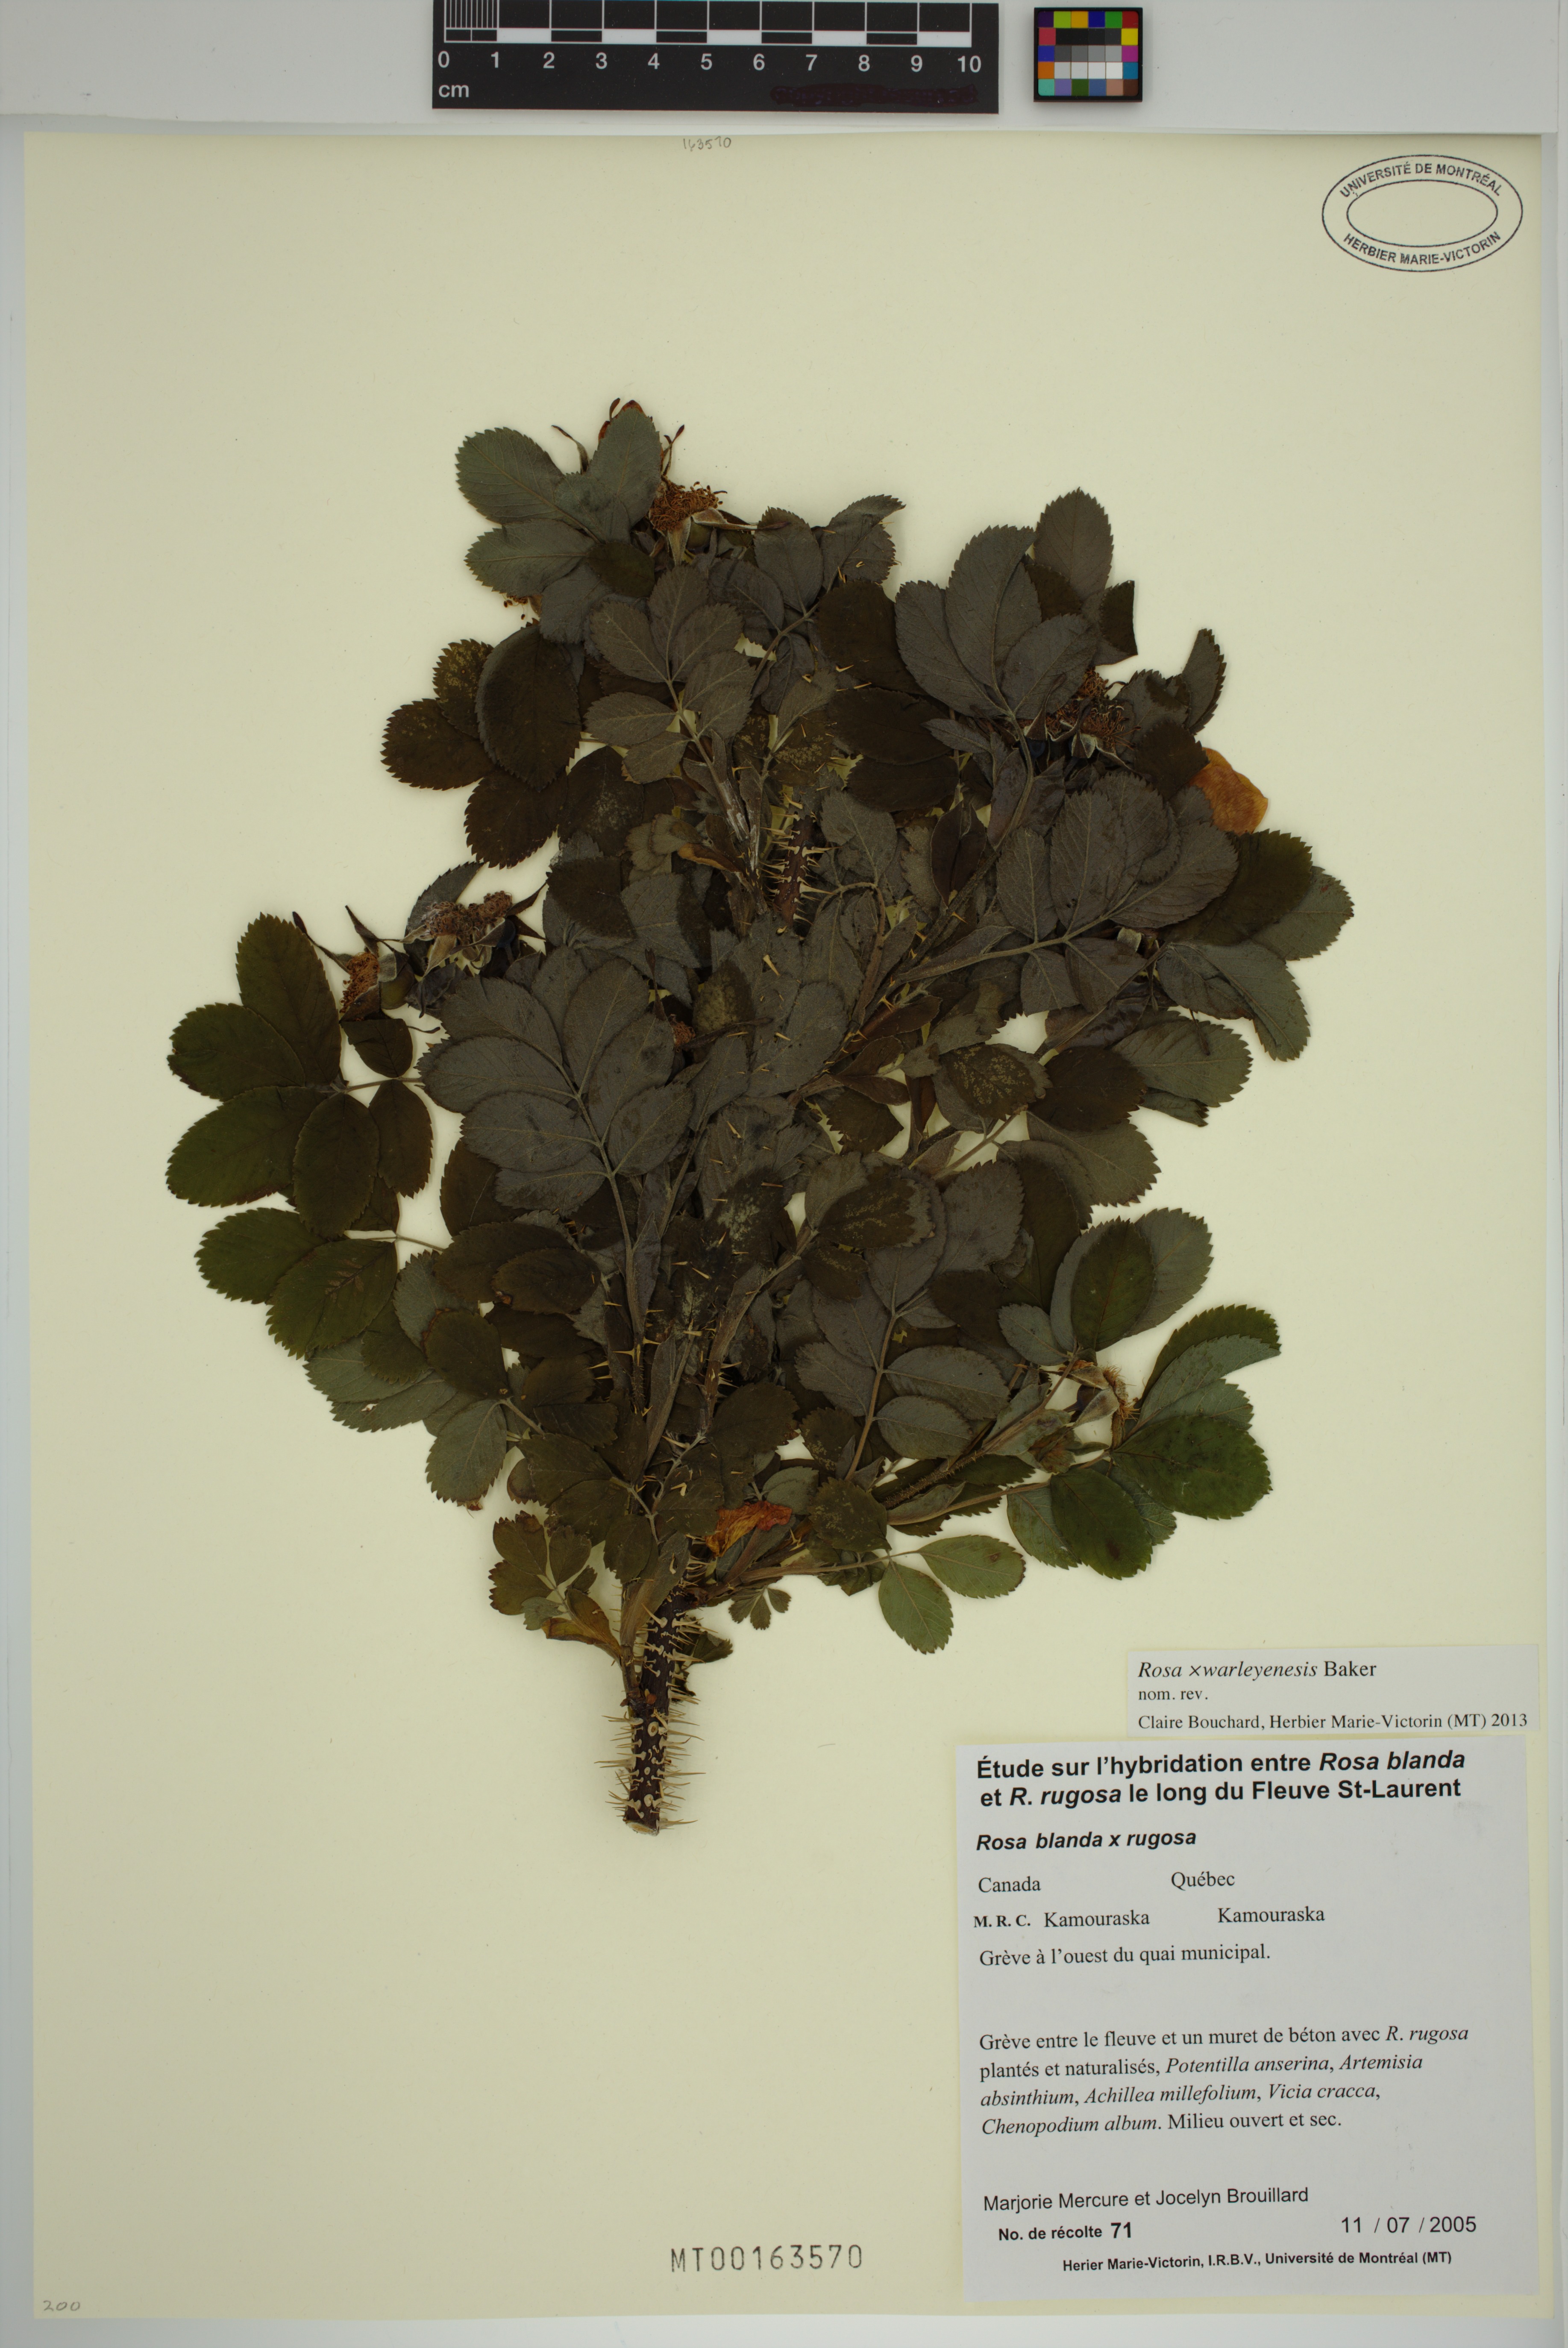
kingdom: Plantae
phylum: Tracheophyta
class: Magnoliopsida
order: Rosales
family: Rosaceae
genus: Rosa
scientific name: Rosa warleyensis
